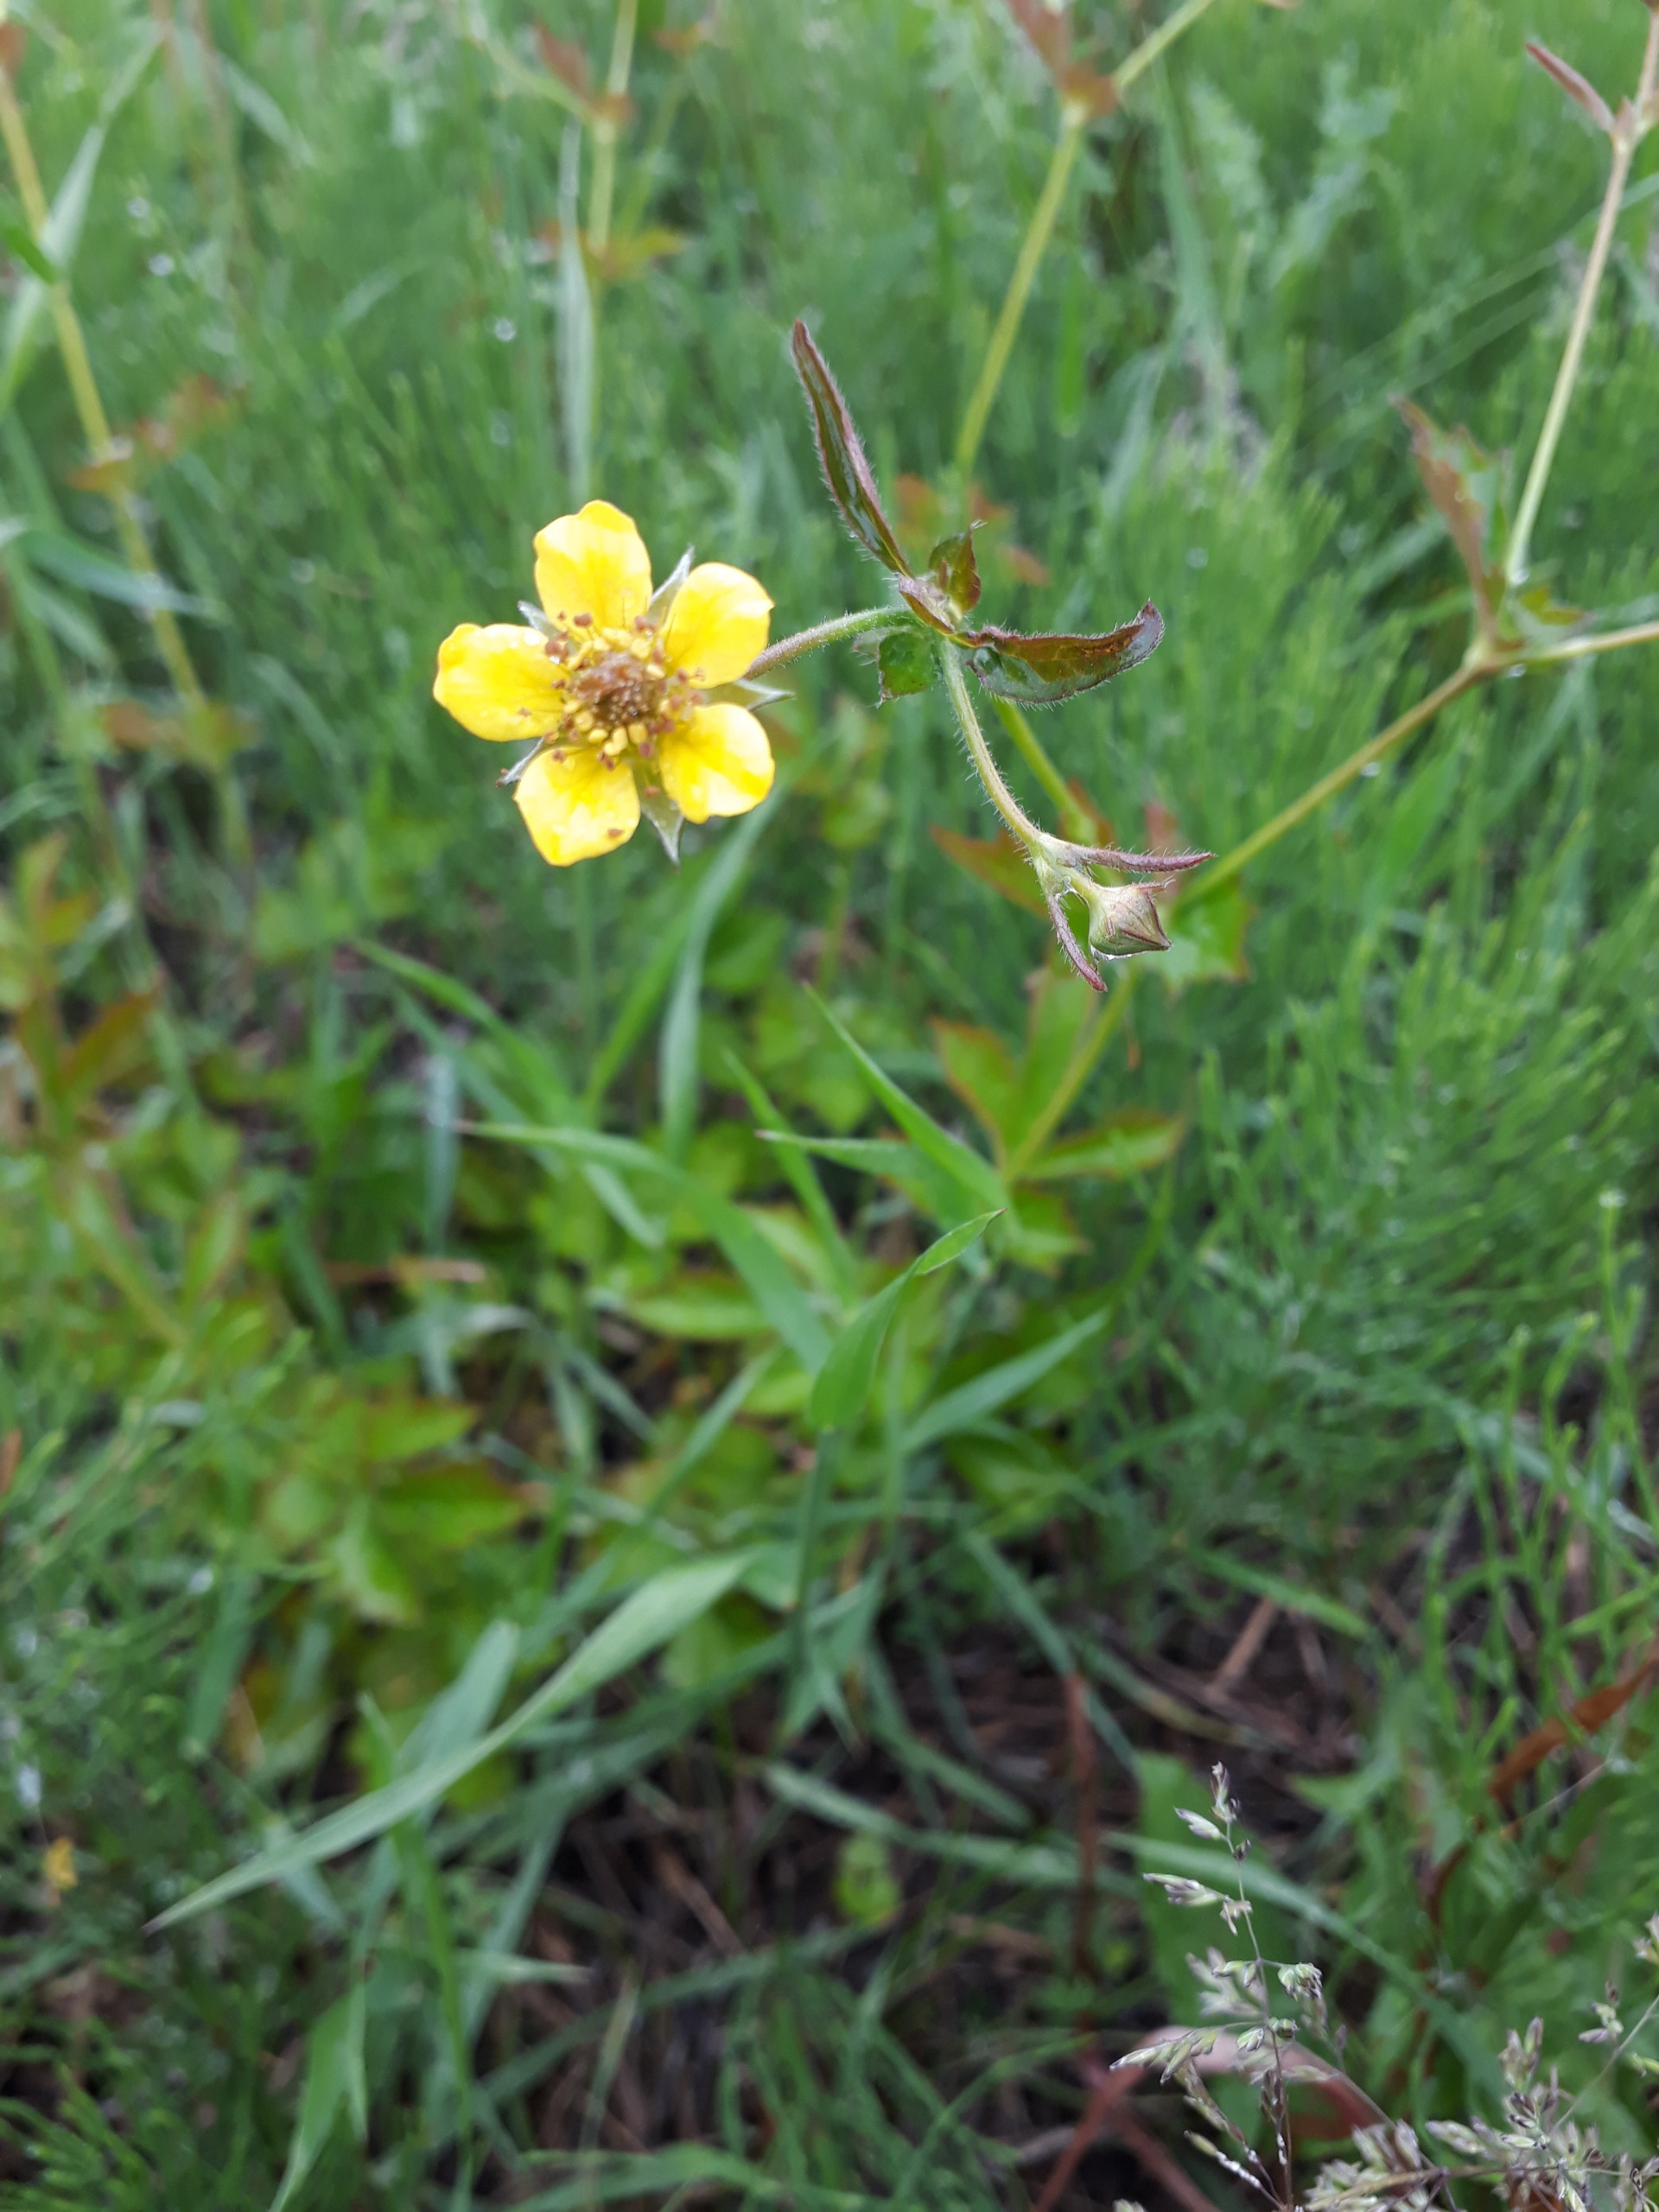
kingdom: Plantae
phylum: Tracheophyta
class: Magnoliopsida
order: Rosales
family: Rosaceae
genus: Geum
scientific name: Geum urbanum
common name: Feber-nellikerod
